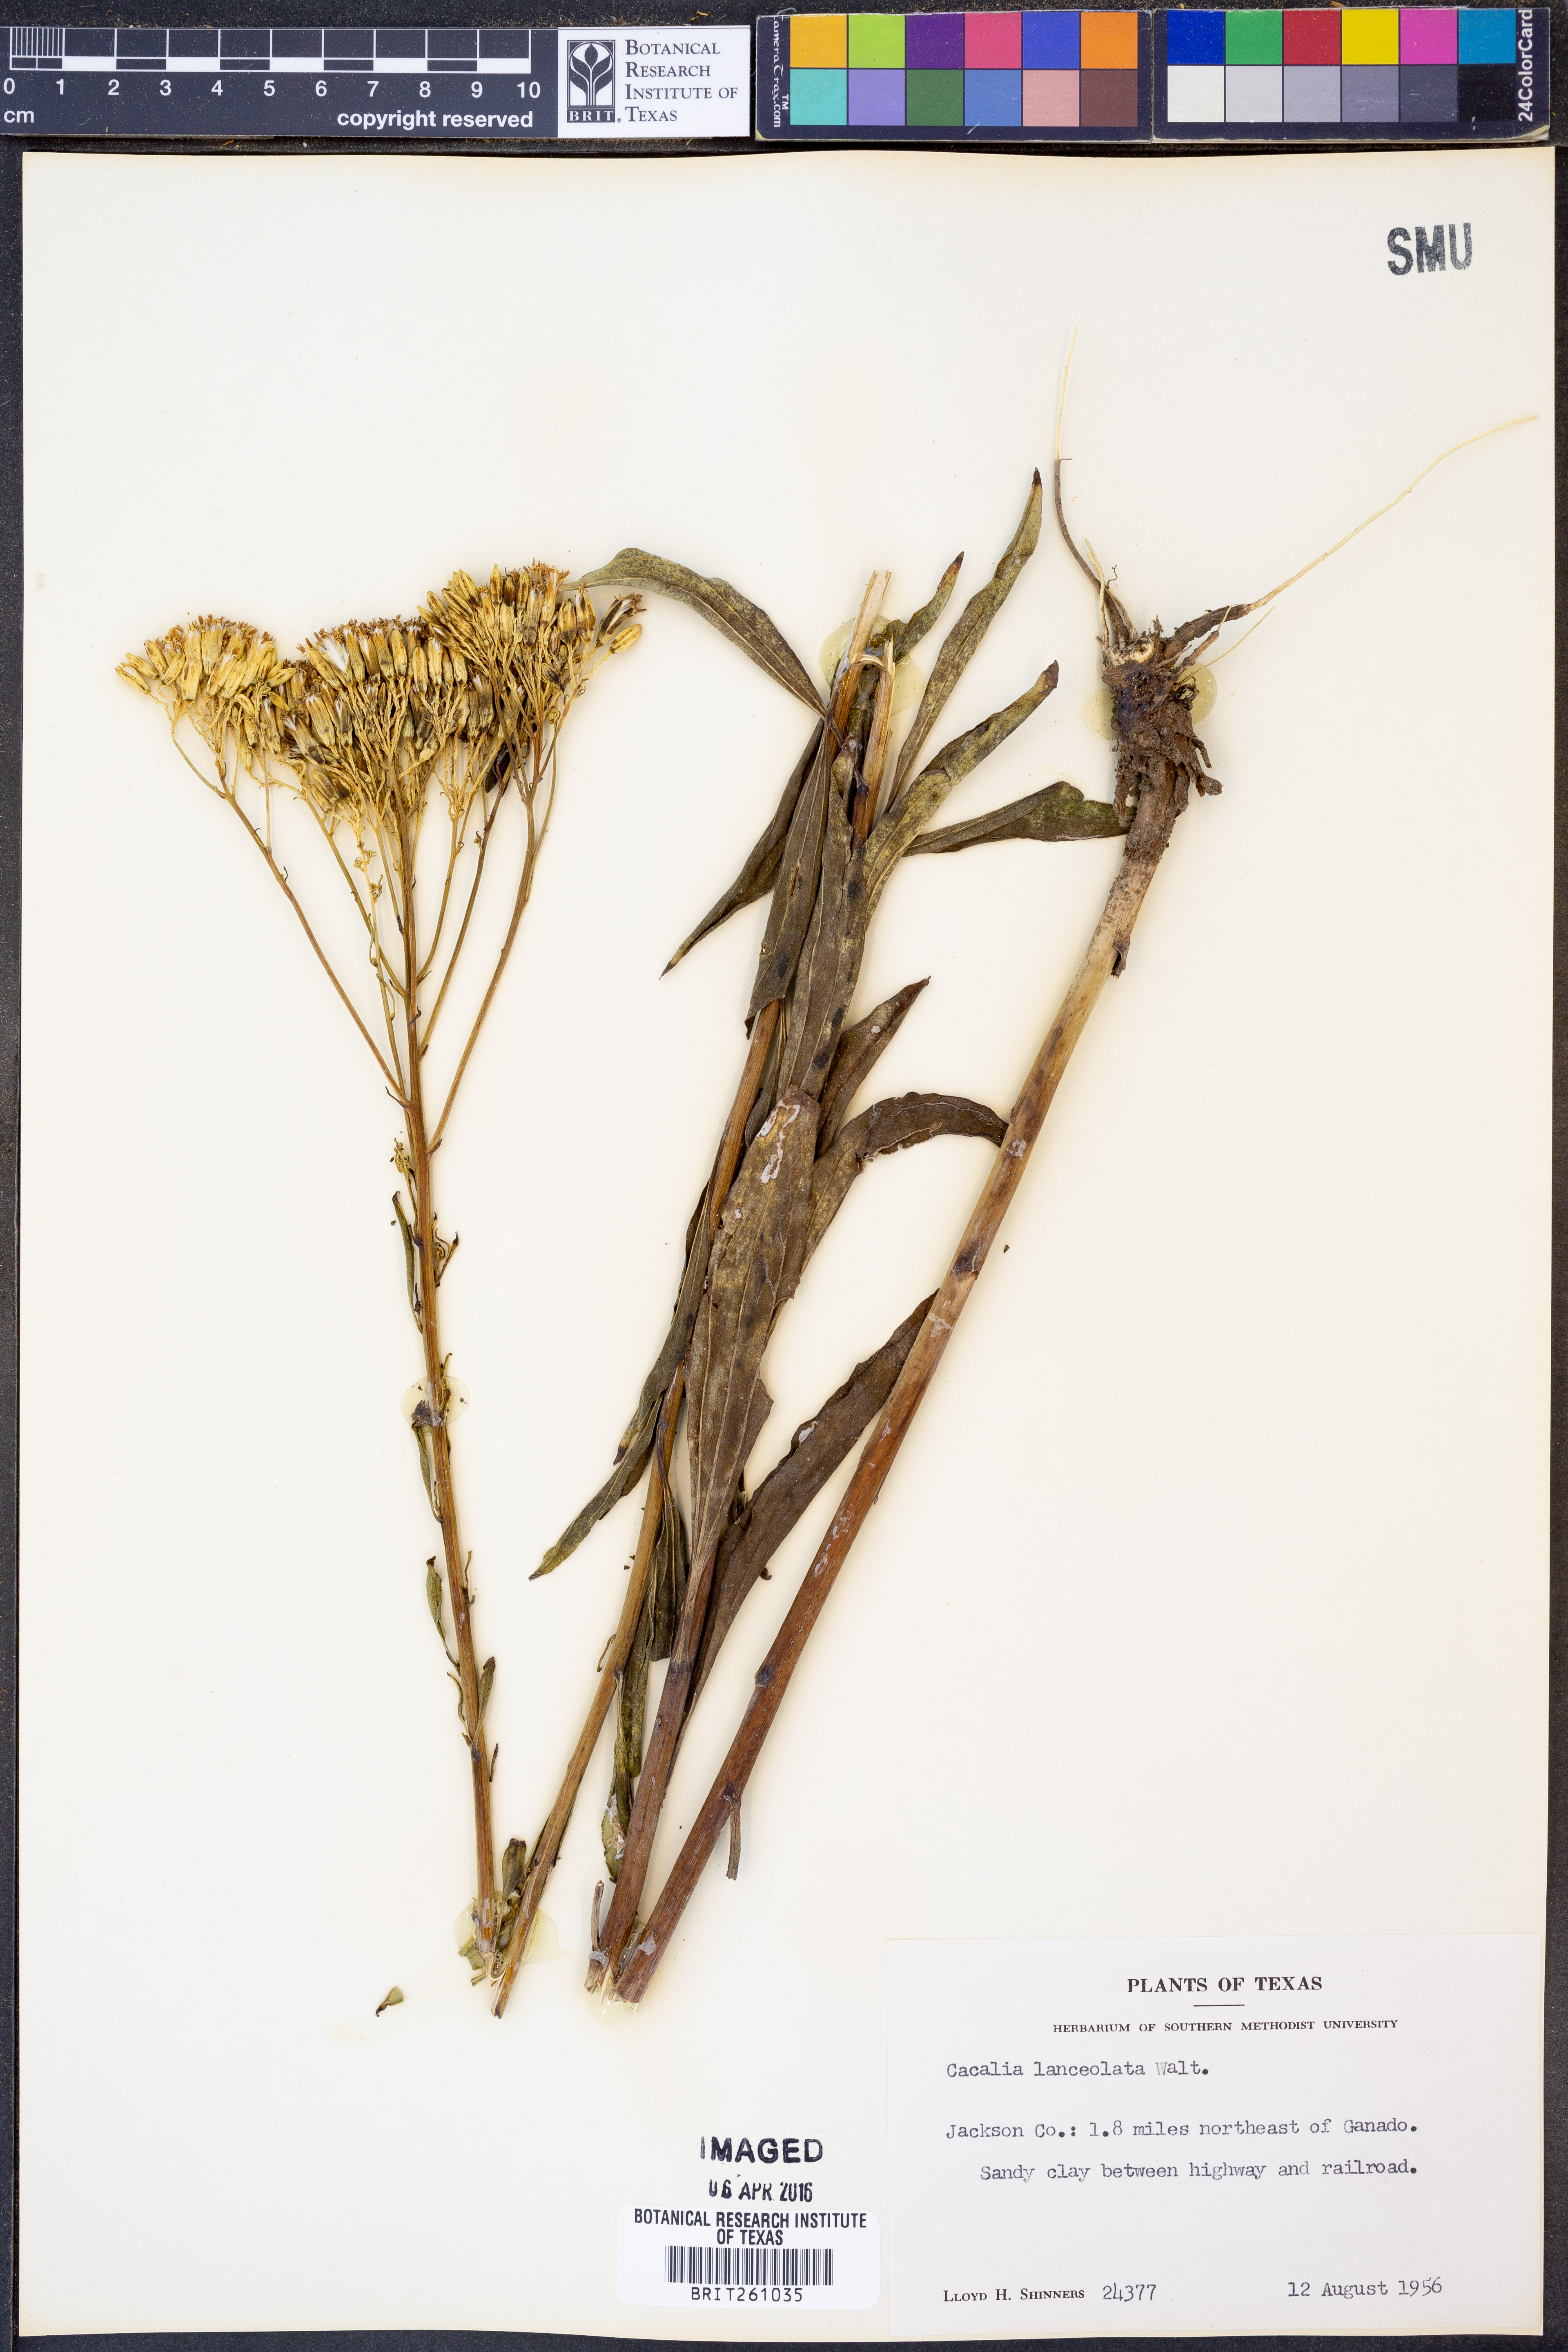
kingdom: Plantae
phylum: Tracheophyta
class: Magnoliopsida
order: Asterales
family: Asteraceae
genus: Arnoglossum
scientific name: Arnoglossum ovatum
